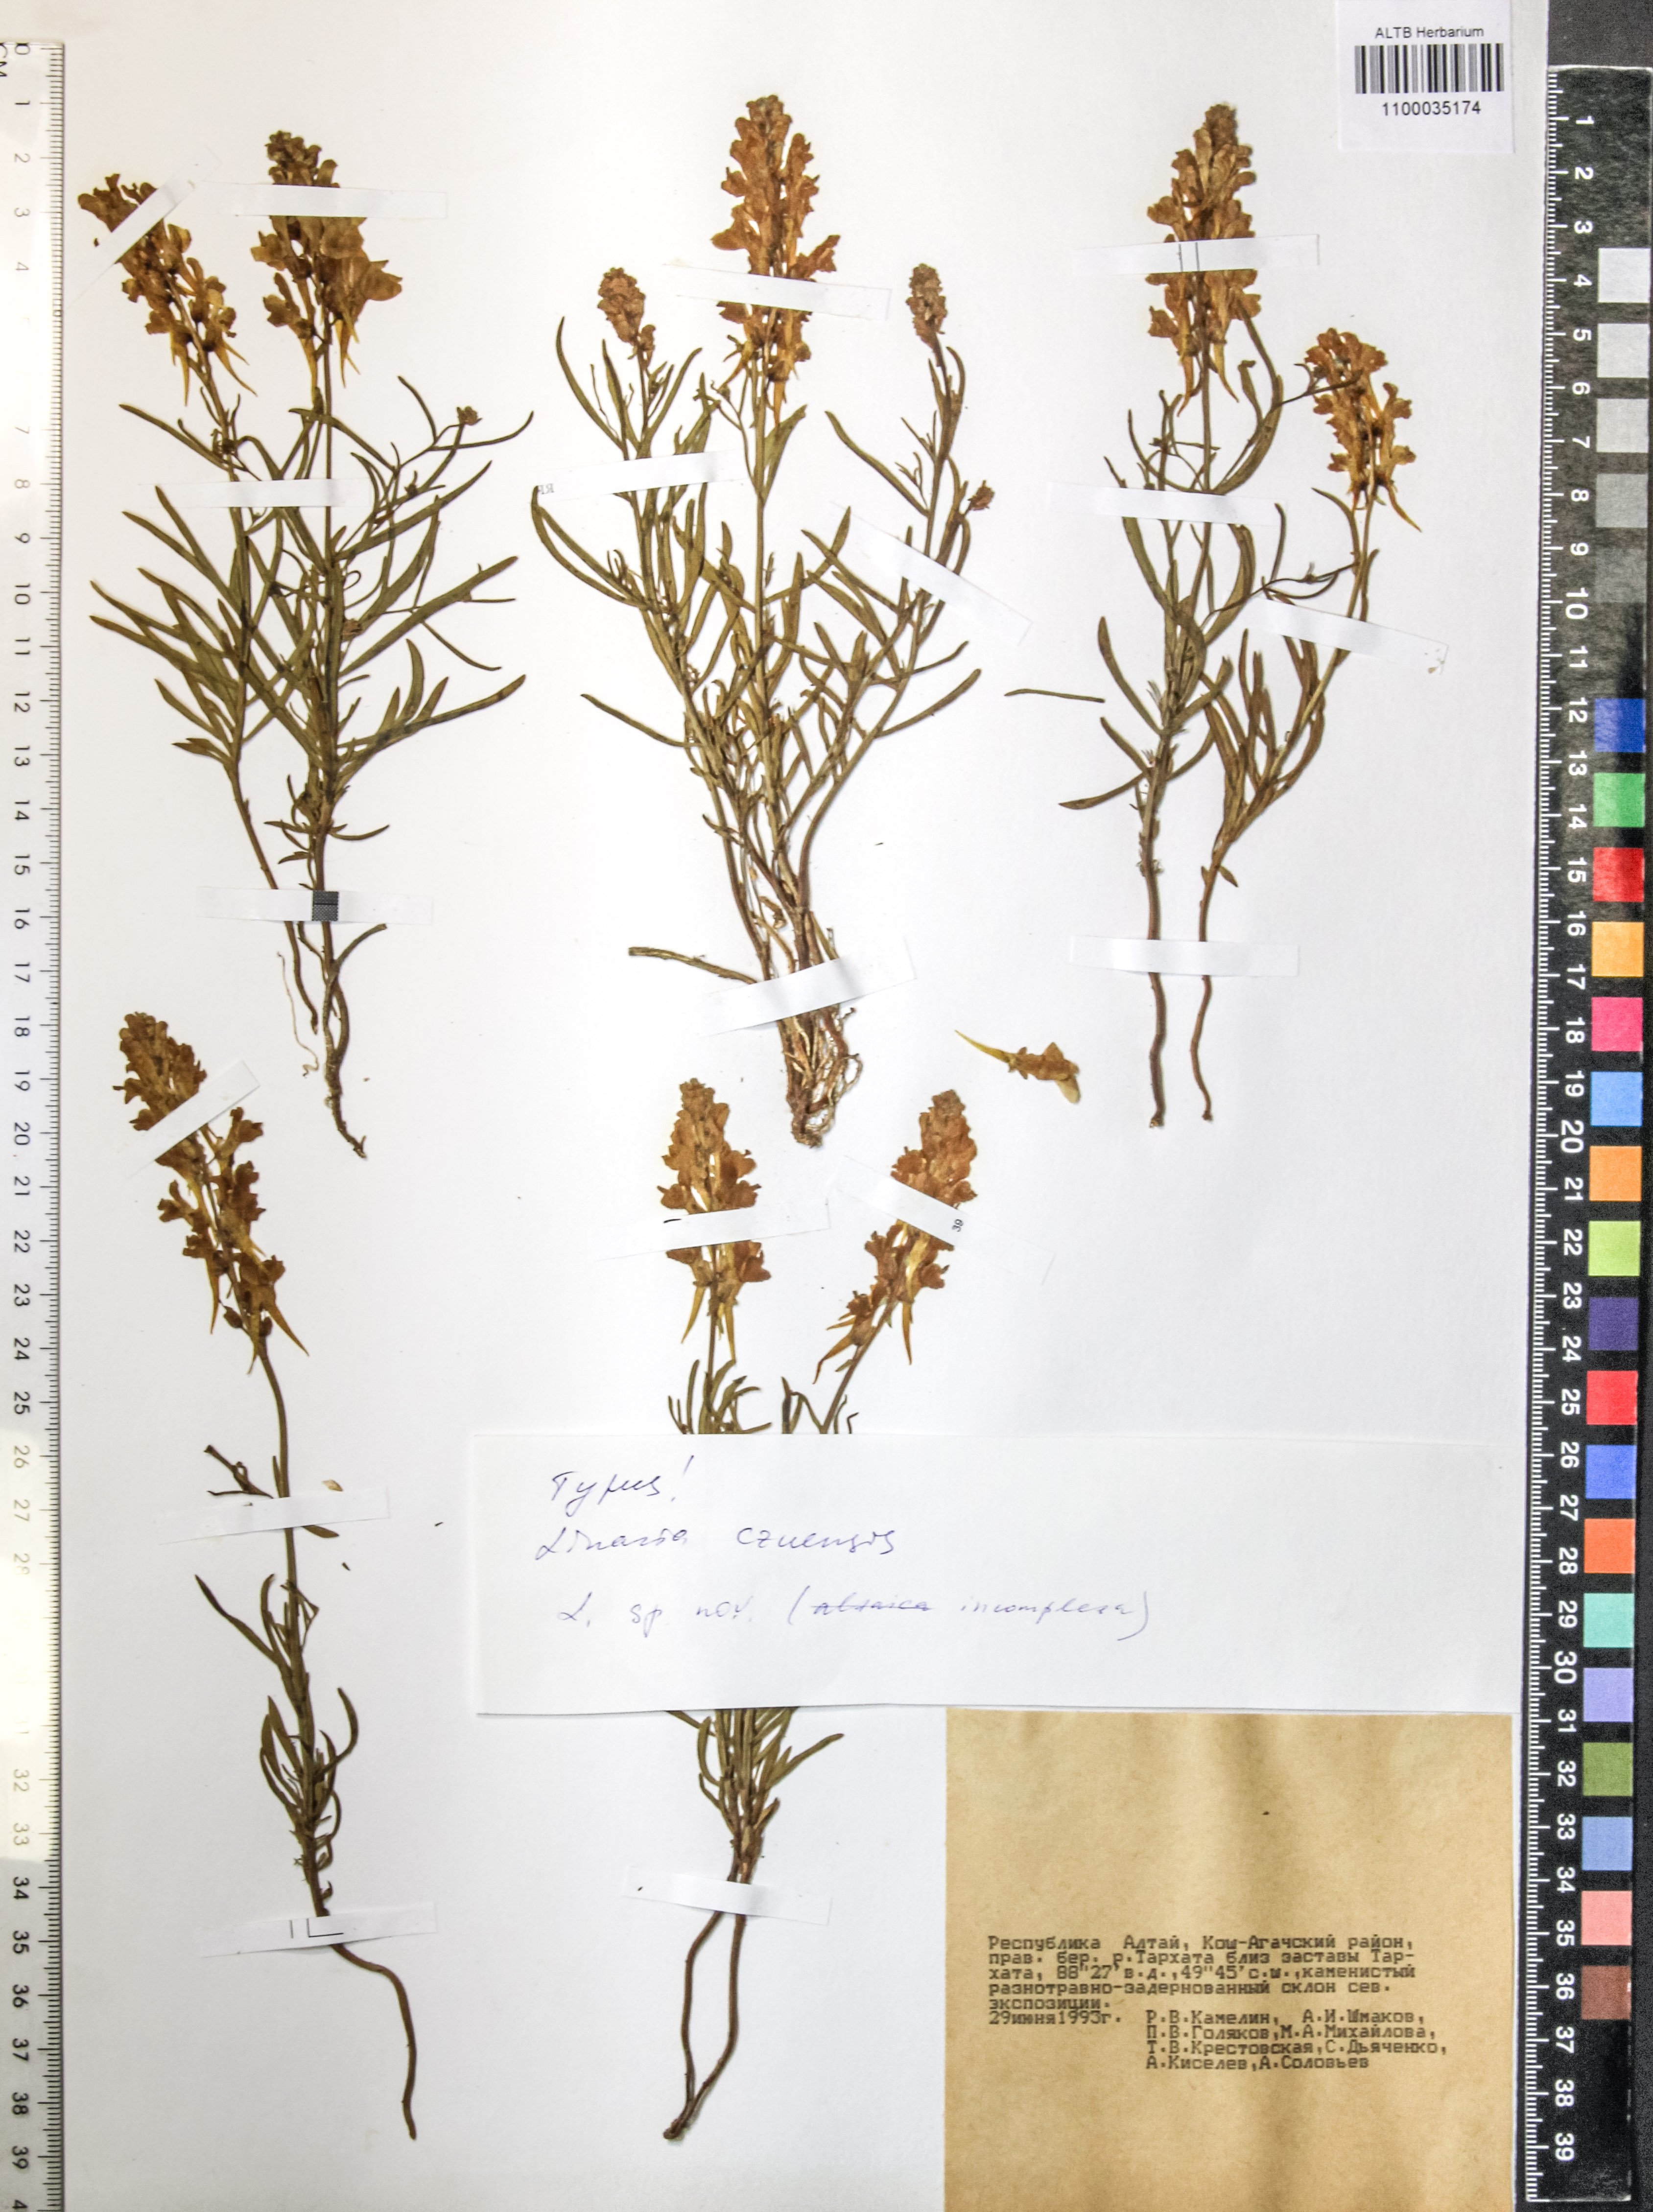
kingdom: Plantae
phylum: Tracheophyta
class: Magnoliopsida
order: Lamiales
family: Plantaginaceae
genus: Linaria
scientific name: Linaria arvensis
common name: Corn toadflax
